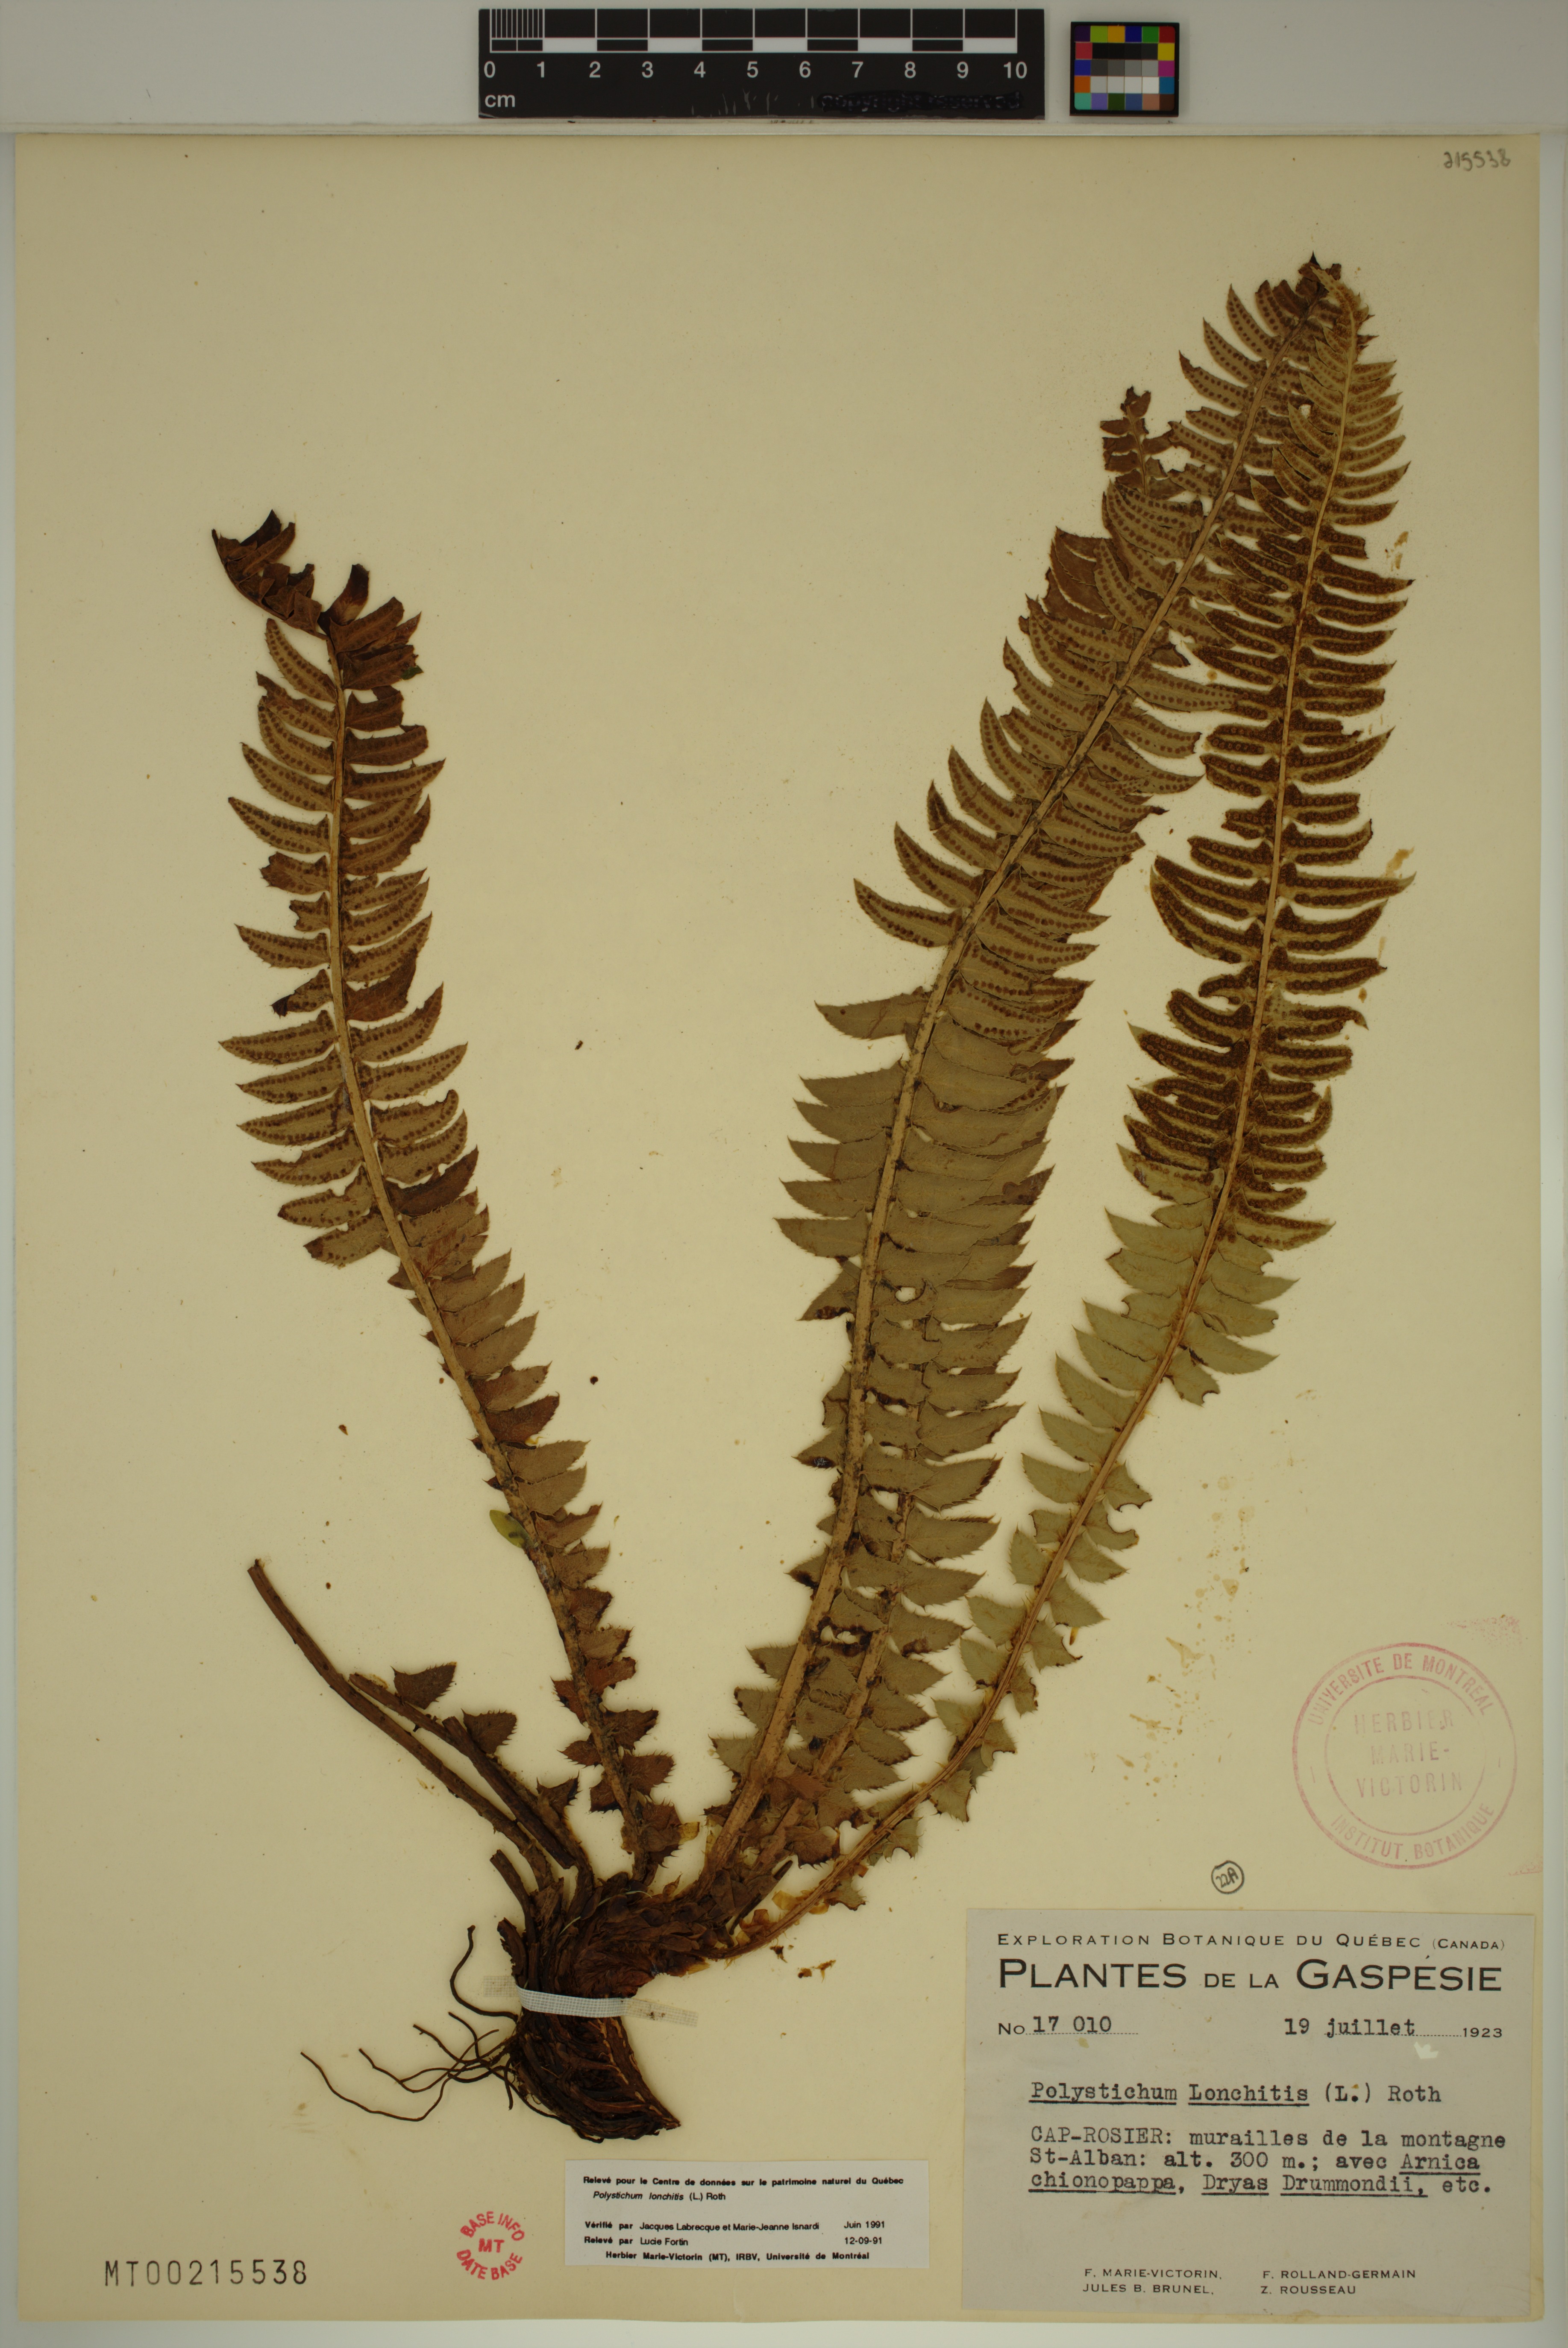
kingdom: Plantae
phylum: Tracheophyta
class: Polypodiopsida
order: Polypodiales
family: Dryopteridaceae
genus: Polystichum
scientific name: Polystichum lonchitis
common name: Holly fern
